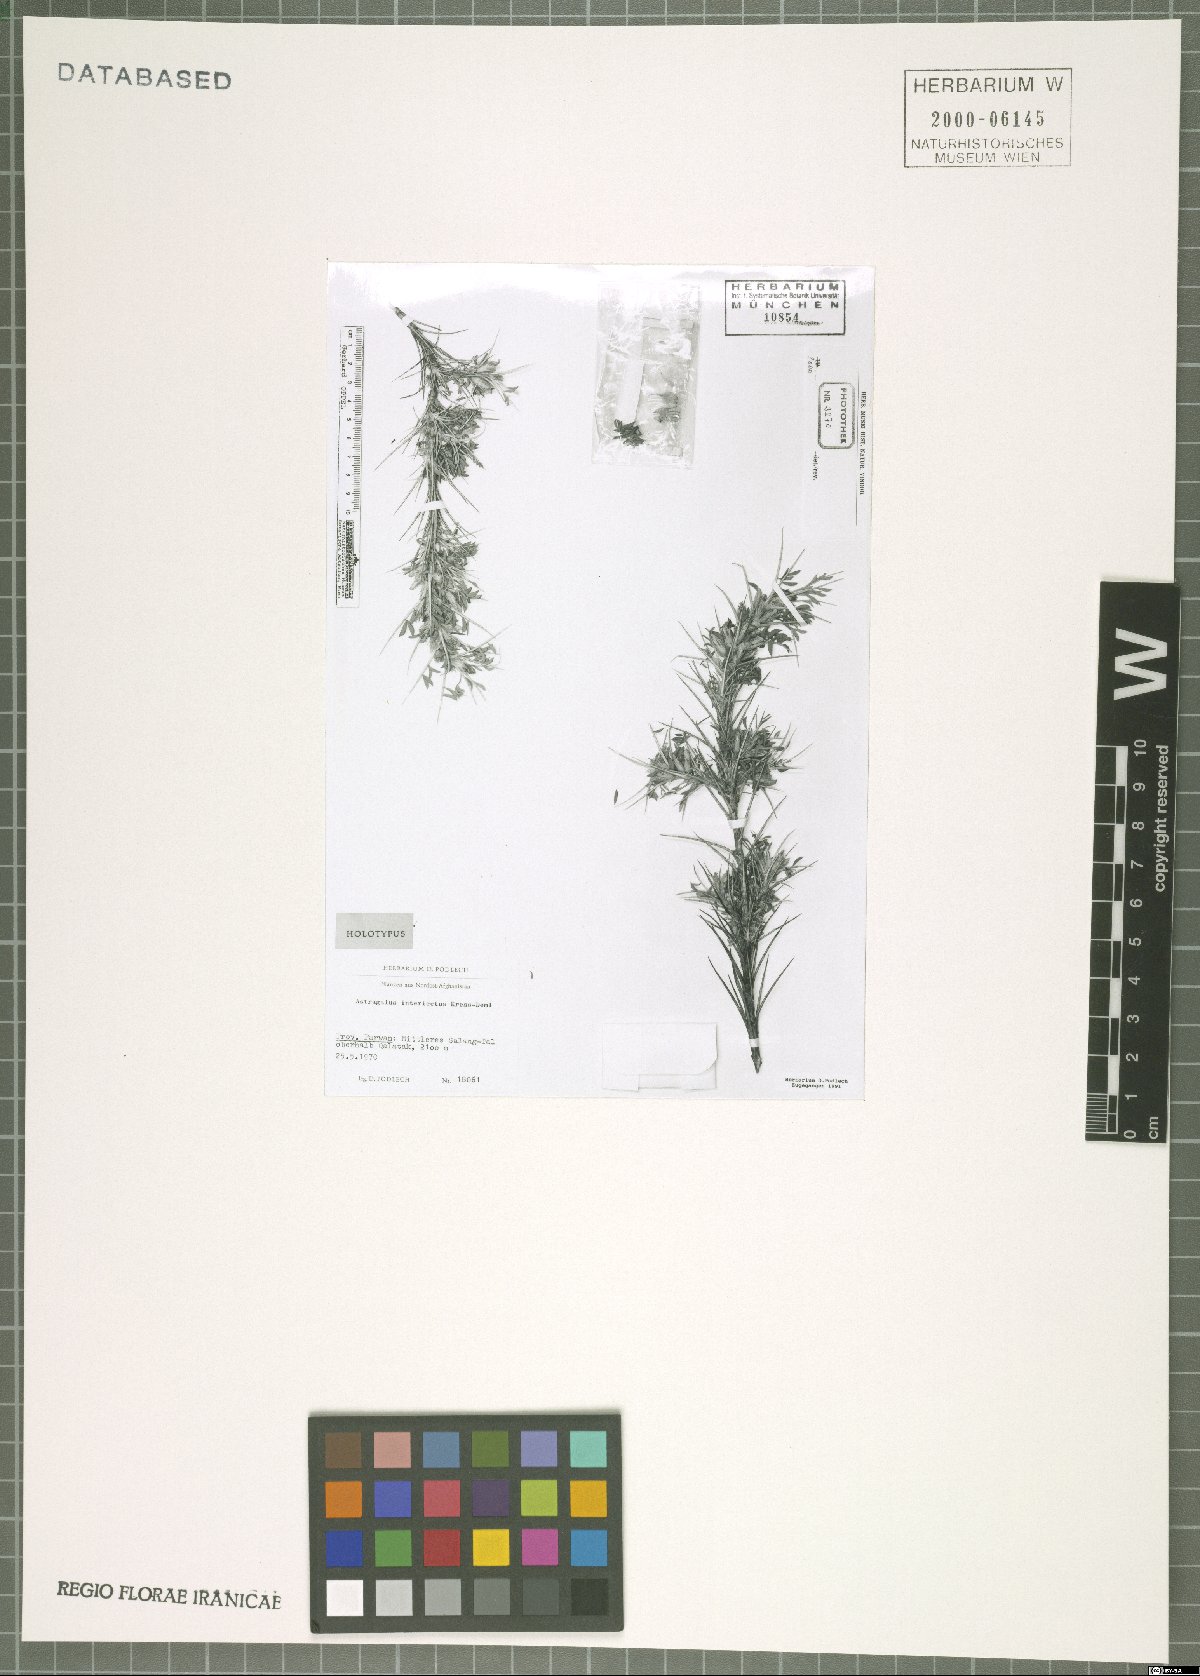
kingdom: Plantae
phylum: Tracheophyta
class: Magnoliopsida
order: Fabales
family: Fabaceae
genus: Astragalus
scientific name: Astragalus interiectus
